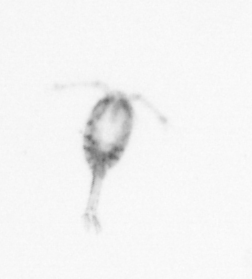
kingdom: Animalia
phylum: Arthropoda
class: Copepoda
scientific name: Copepoda
